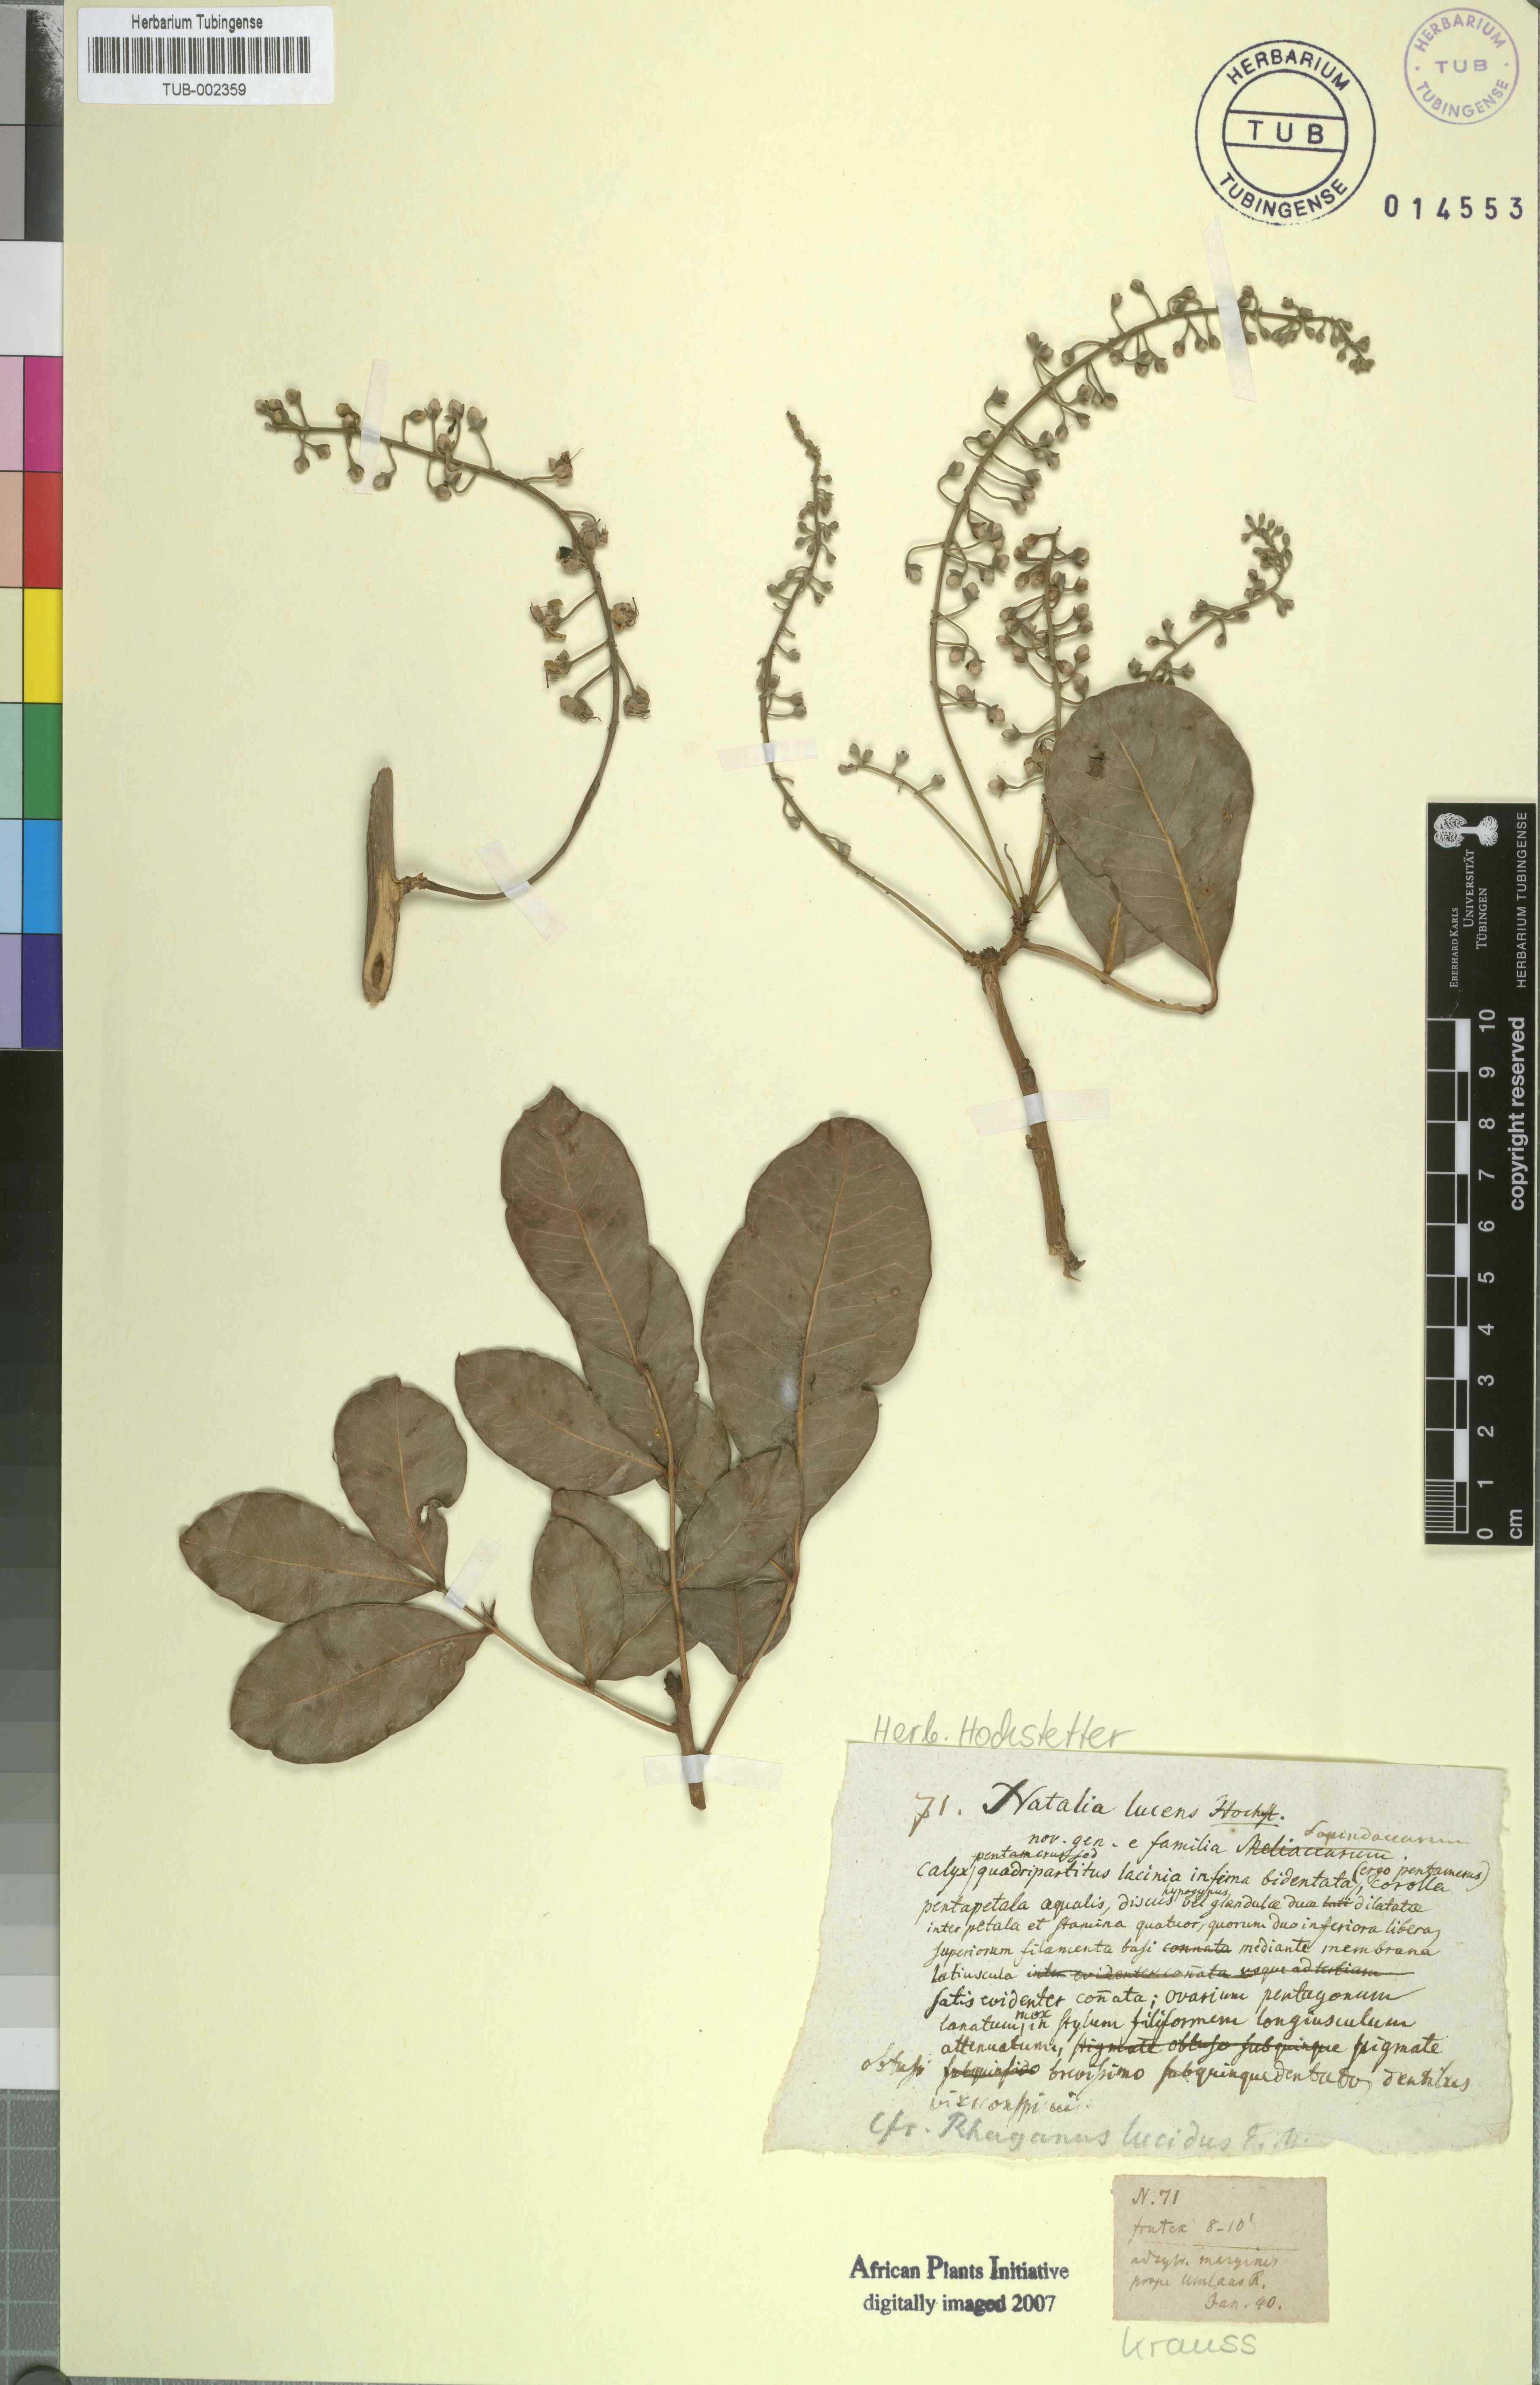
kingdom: Plantae
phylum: Tracheophyta
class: Magnoliopsida
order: Geraniales
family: Melianthaceae
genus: Bersama
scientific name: Bersama lucens
